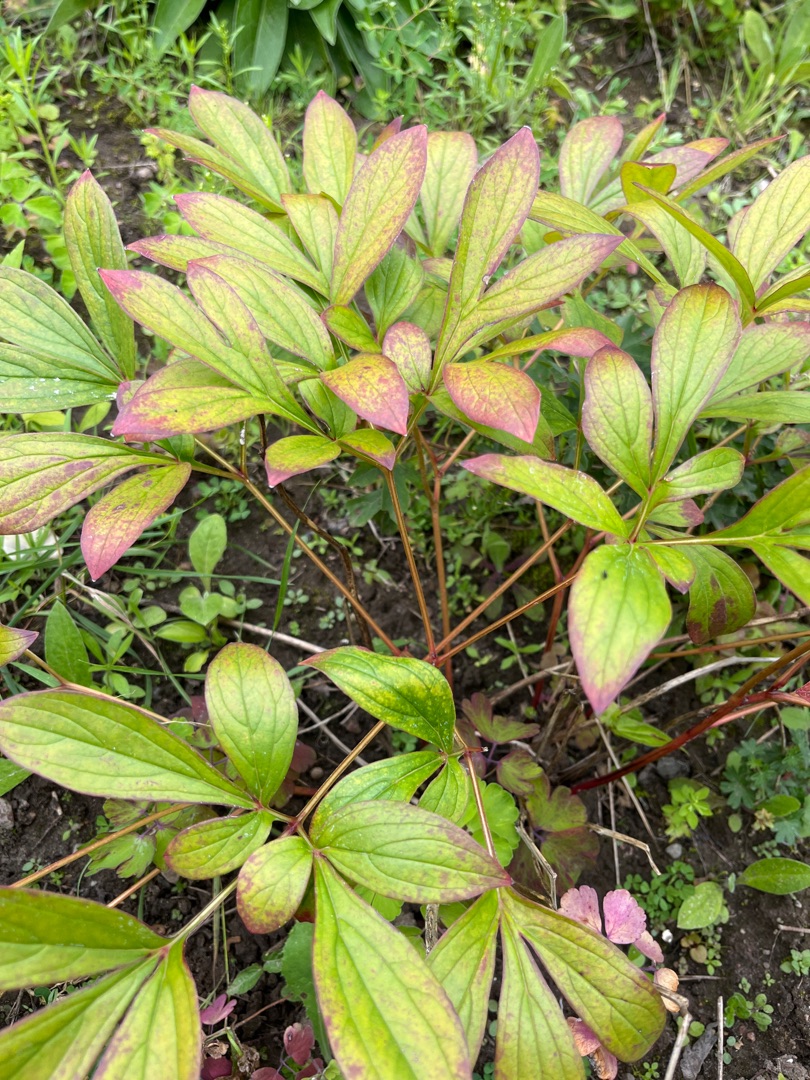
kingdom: Plantae
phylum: Tracheophyta
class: Magnoliopsida
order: Saxifragales
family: Paeoniaceae
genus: Paeonia
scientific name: Paeonia officinalis
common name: Bonderose
